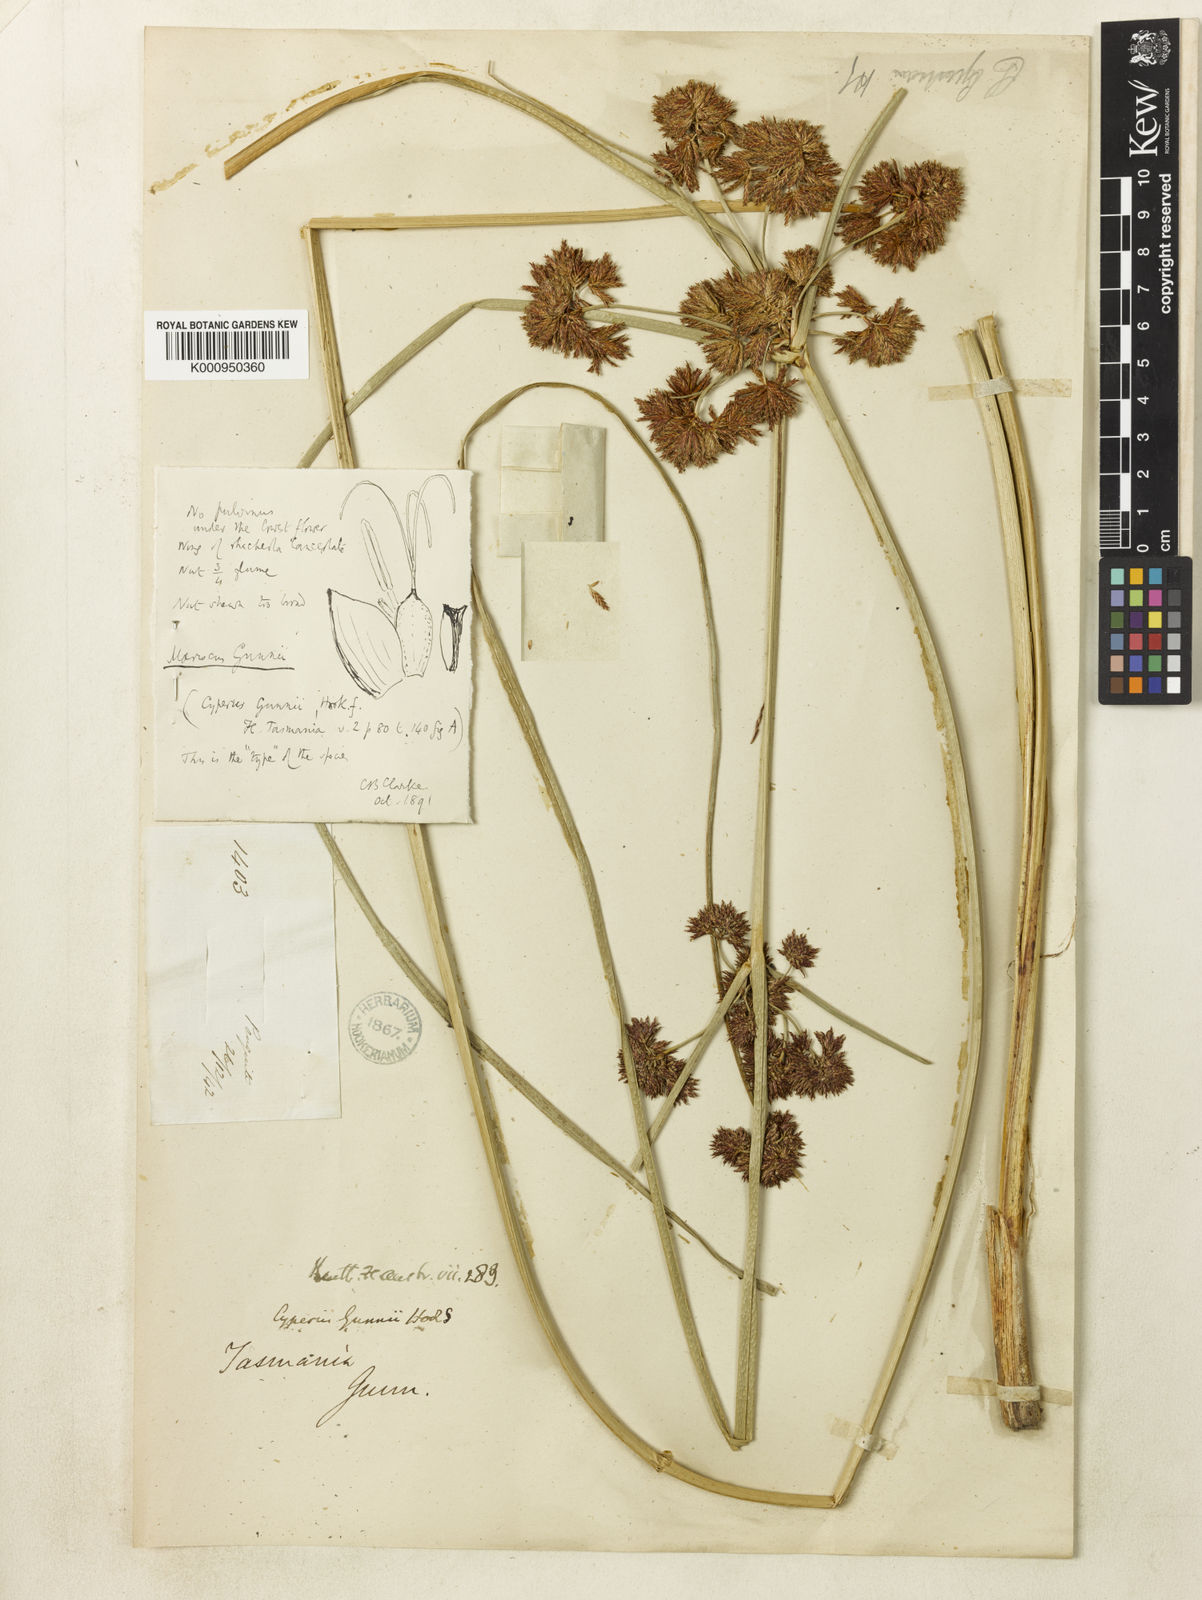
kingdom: Plantae
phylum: Tracheophyta
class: Liliopsida
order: Poales
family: Cyperaceae
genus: Cyperus
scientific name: Cyperus gunnii
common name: Flecked flat-sedge
